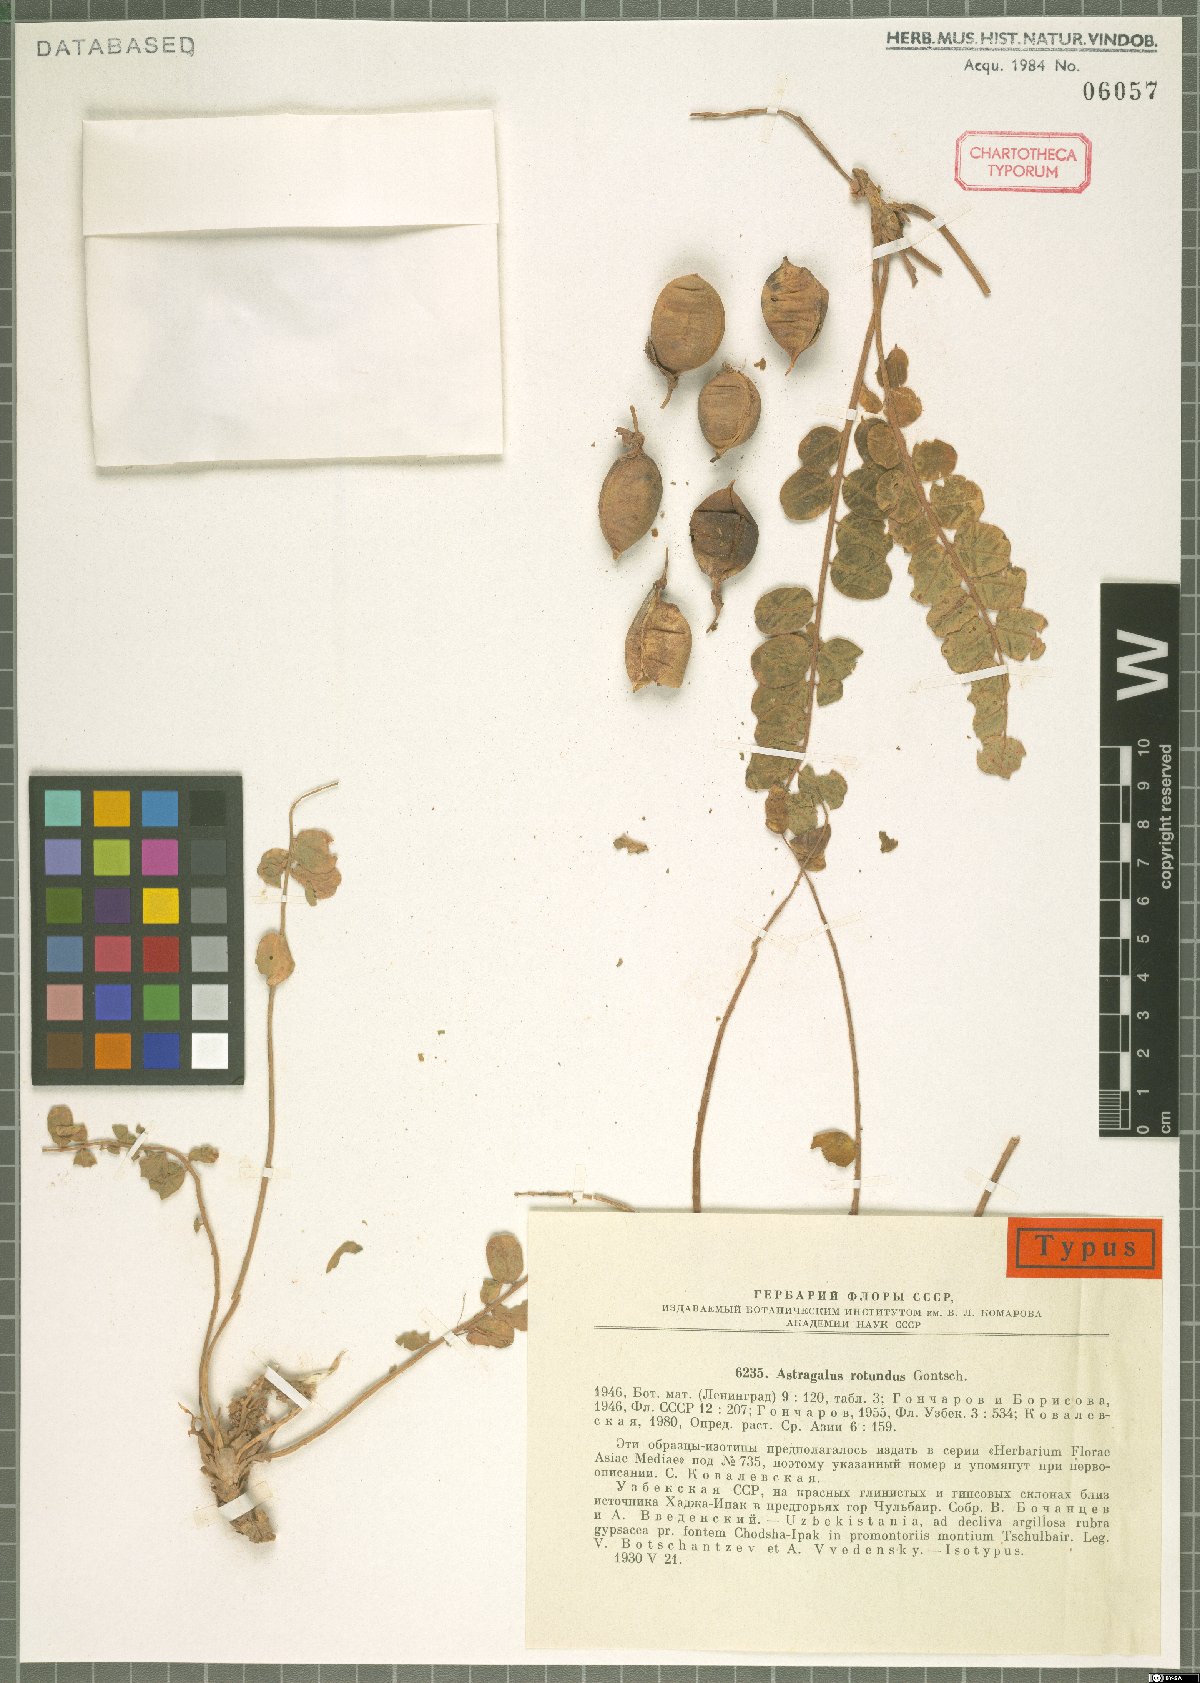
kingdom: Plantae
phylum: Tracheophyta
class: Magnoliopsida
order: Fabales
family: Fabaceae
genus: Astragalus
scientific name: Astragalus rotundus
